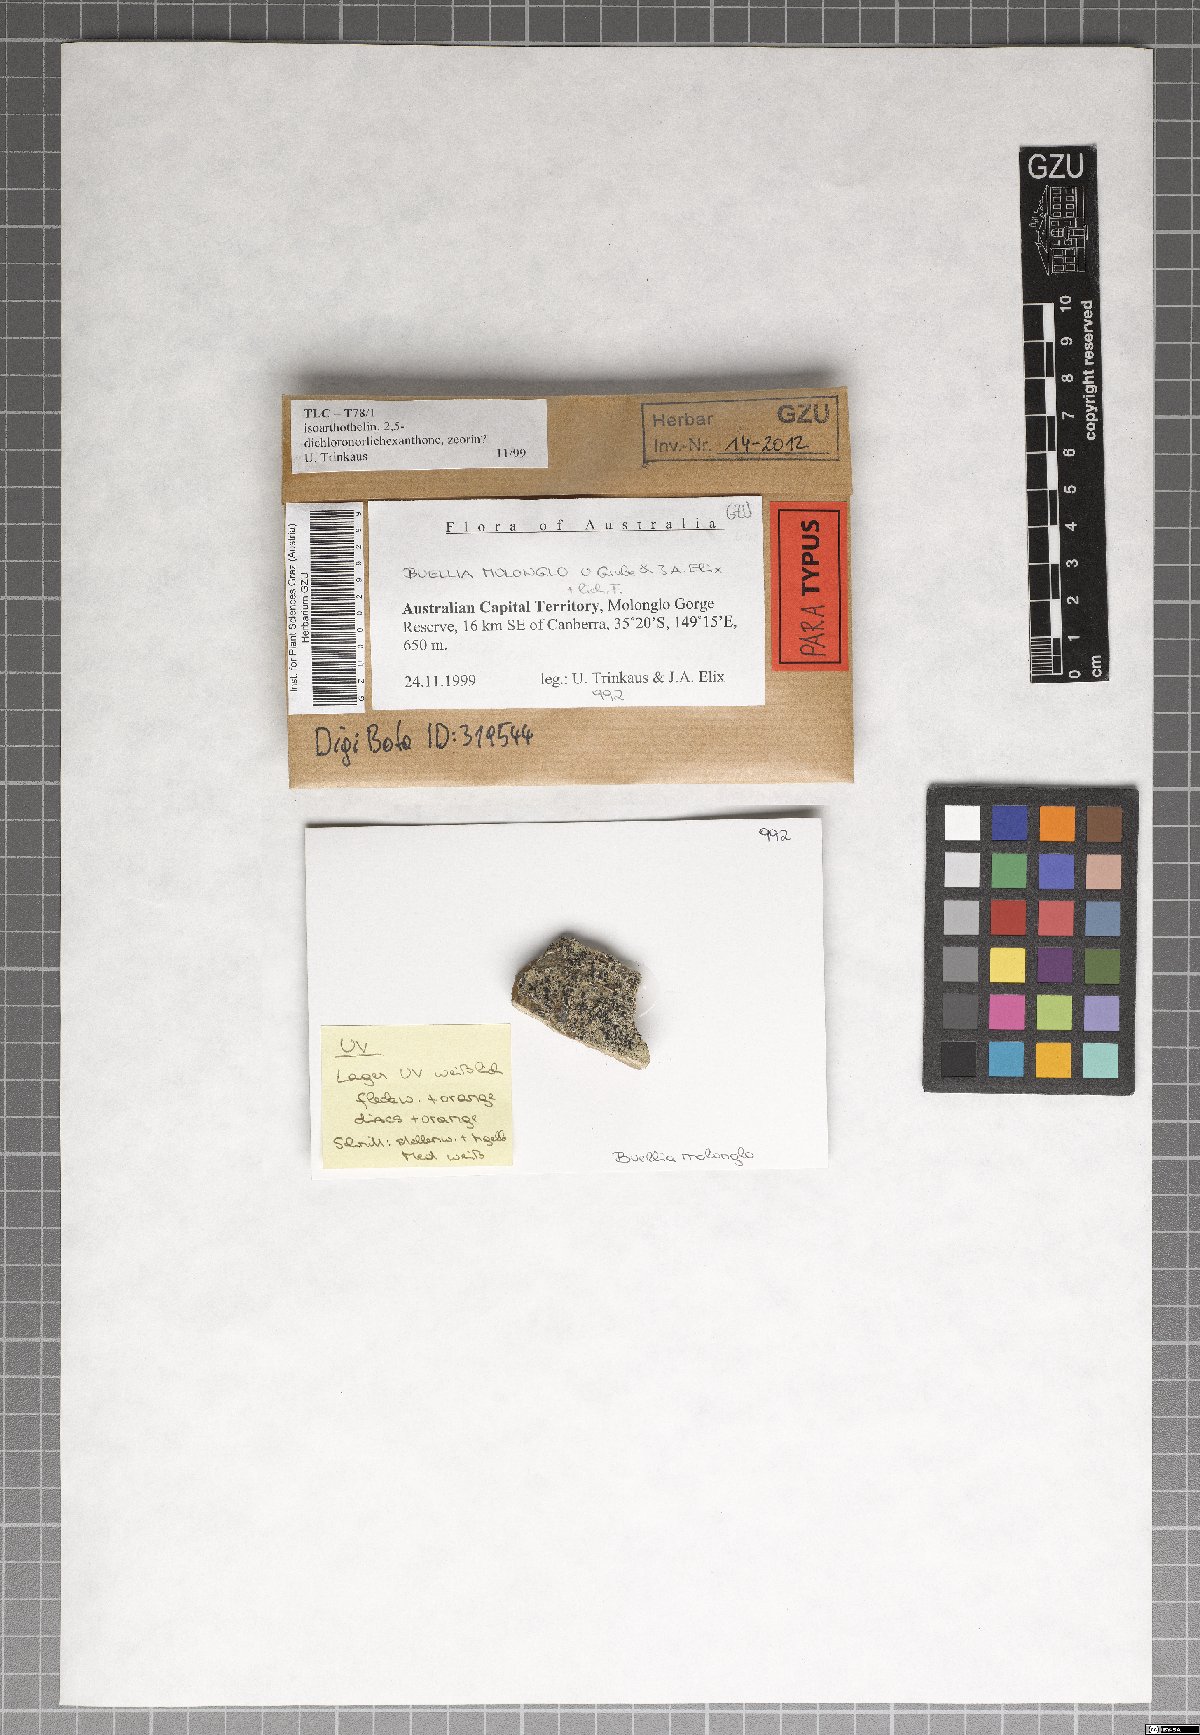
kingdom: Fungi
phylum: Ascomycota
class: Lecanoromycetes
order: Caliciales
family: Caliciaceae
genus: Buellia
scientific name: Buellia molonglo
